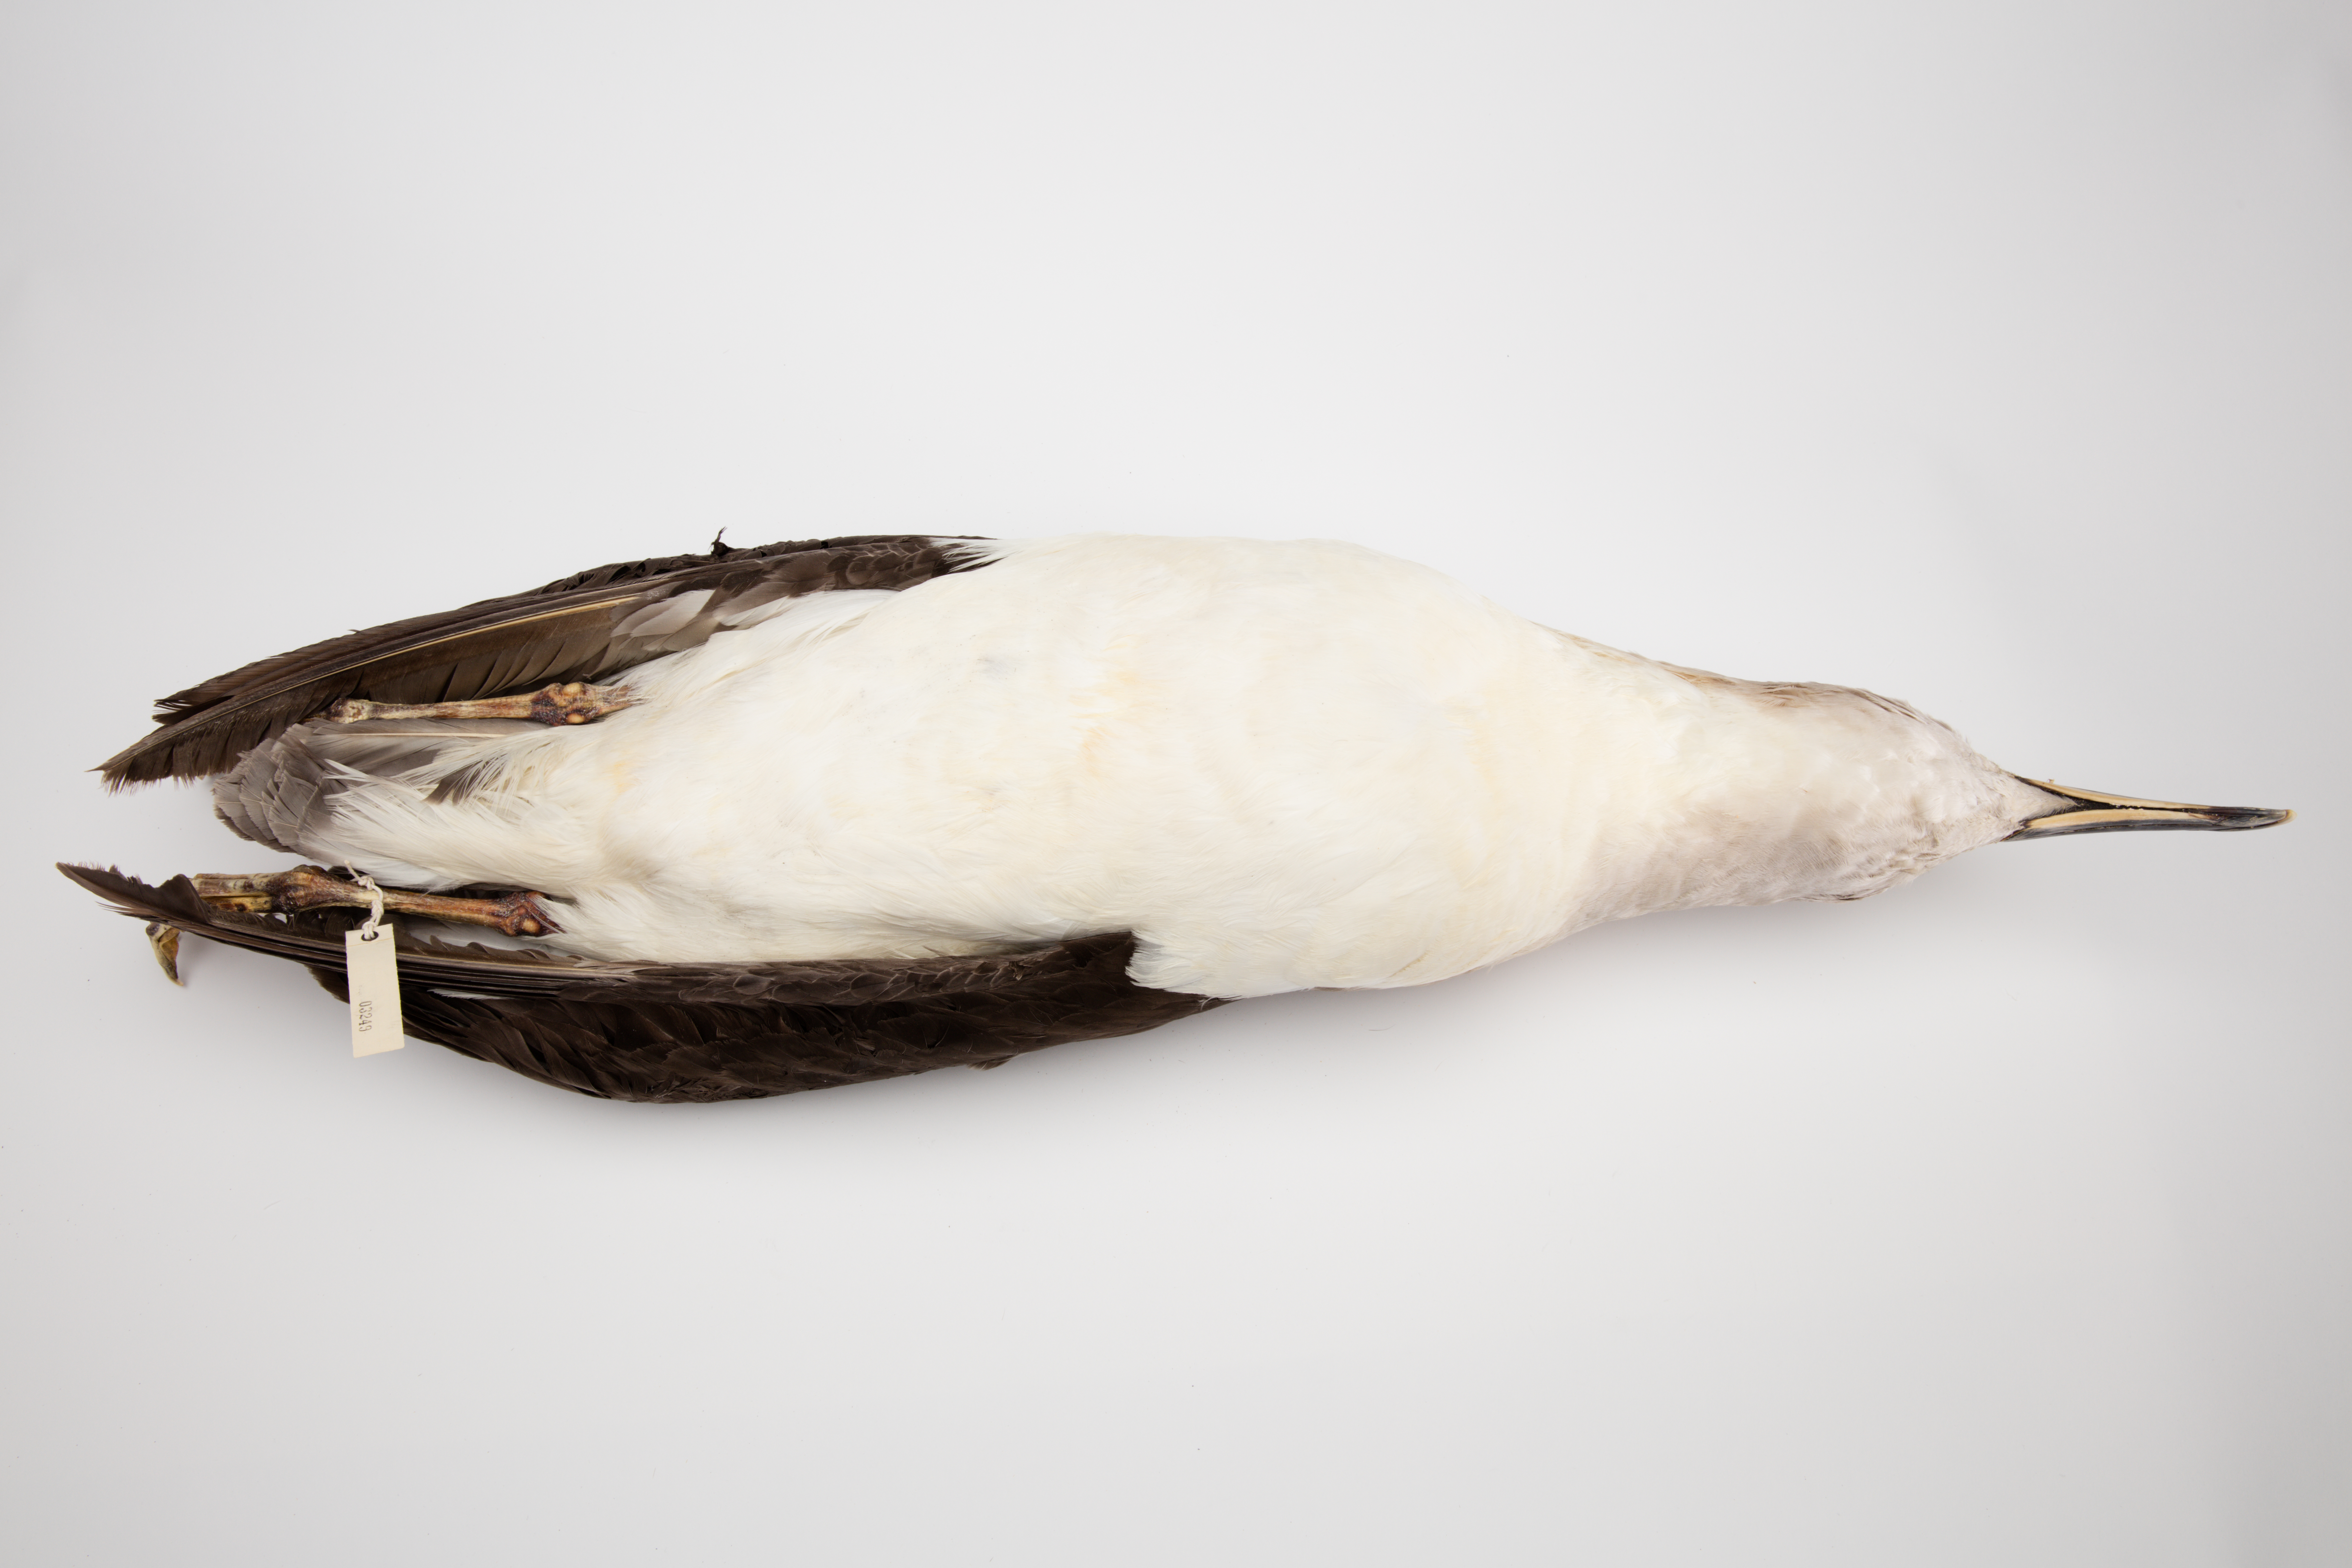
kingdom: Animalia
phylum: Chordata
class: Aves
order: Procellariiformes
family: Diomedeidae
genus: Thalassarche
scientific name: Thalassarche chrysostoma
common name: Grey-headed albatross
